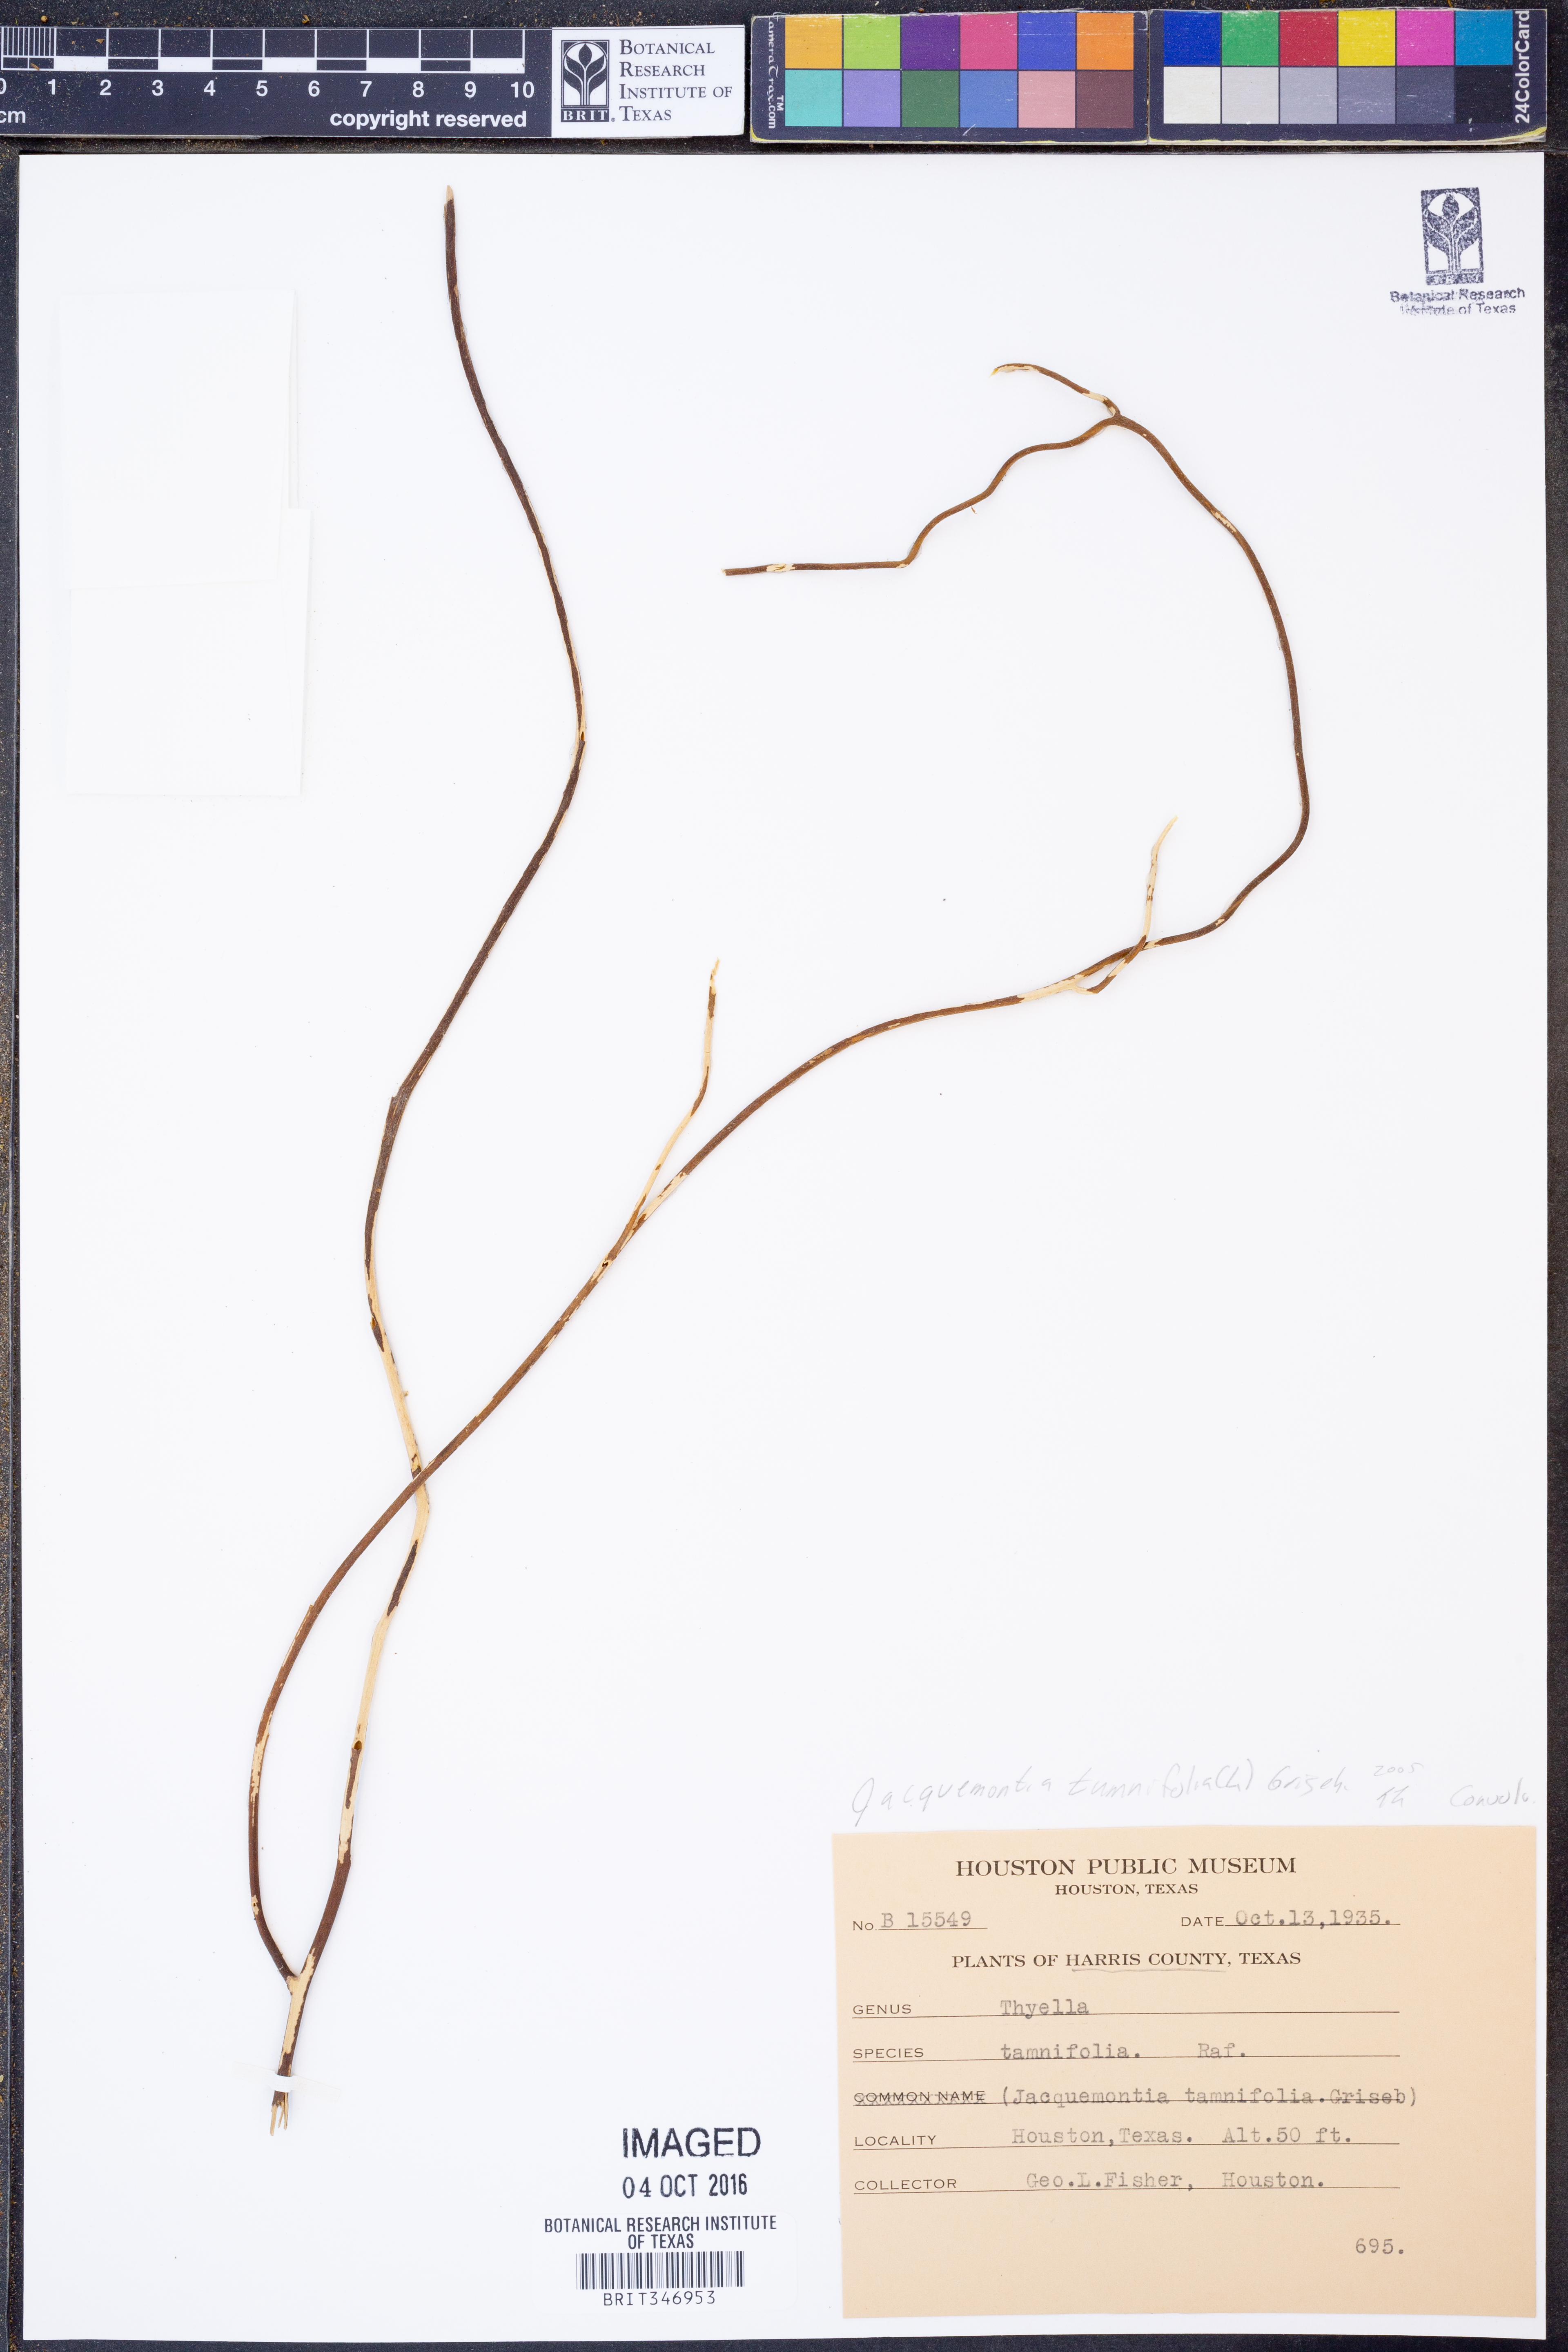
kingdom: Plantae
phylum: Tracheophyta
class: Magnoliopsida
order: Solanales
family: Convolvulaceae
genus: Jacquemontia
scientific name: Jacquemontia tamnifolia
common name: Hairy clustervine
